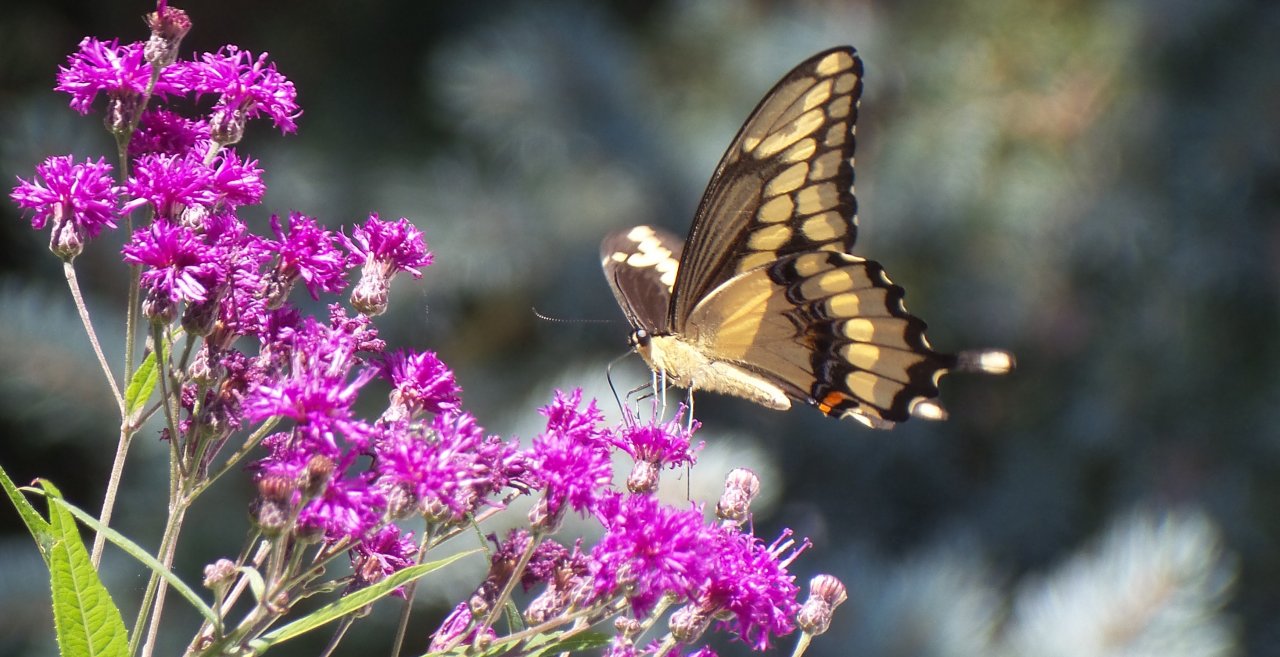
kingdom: Animalia
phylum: Arthropoda
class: Insecta
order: Lepidoptera
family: Papilionidae
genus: Papilio
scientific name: Papilio cresphontes
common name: Eastern Giant Swallowtail
